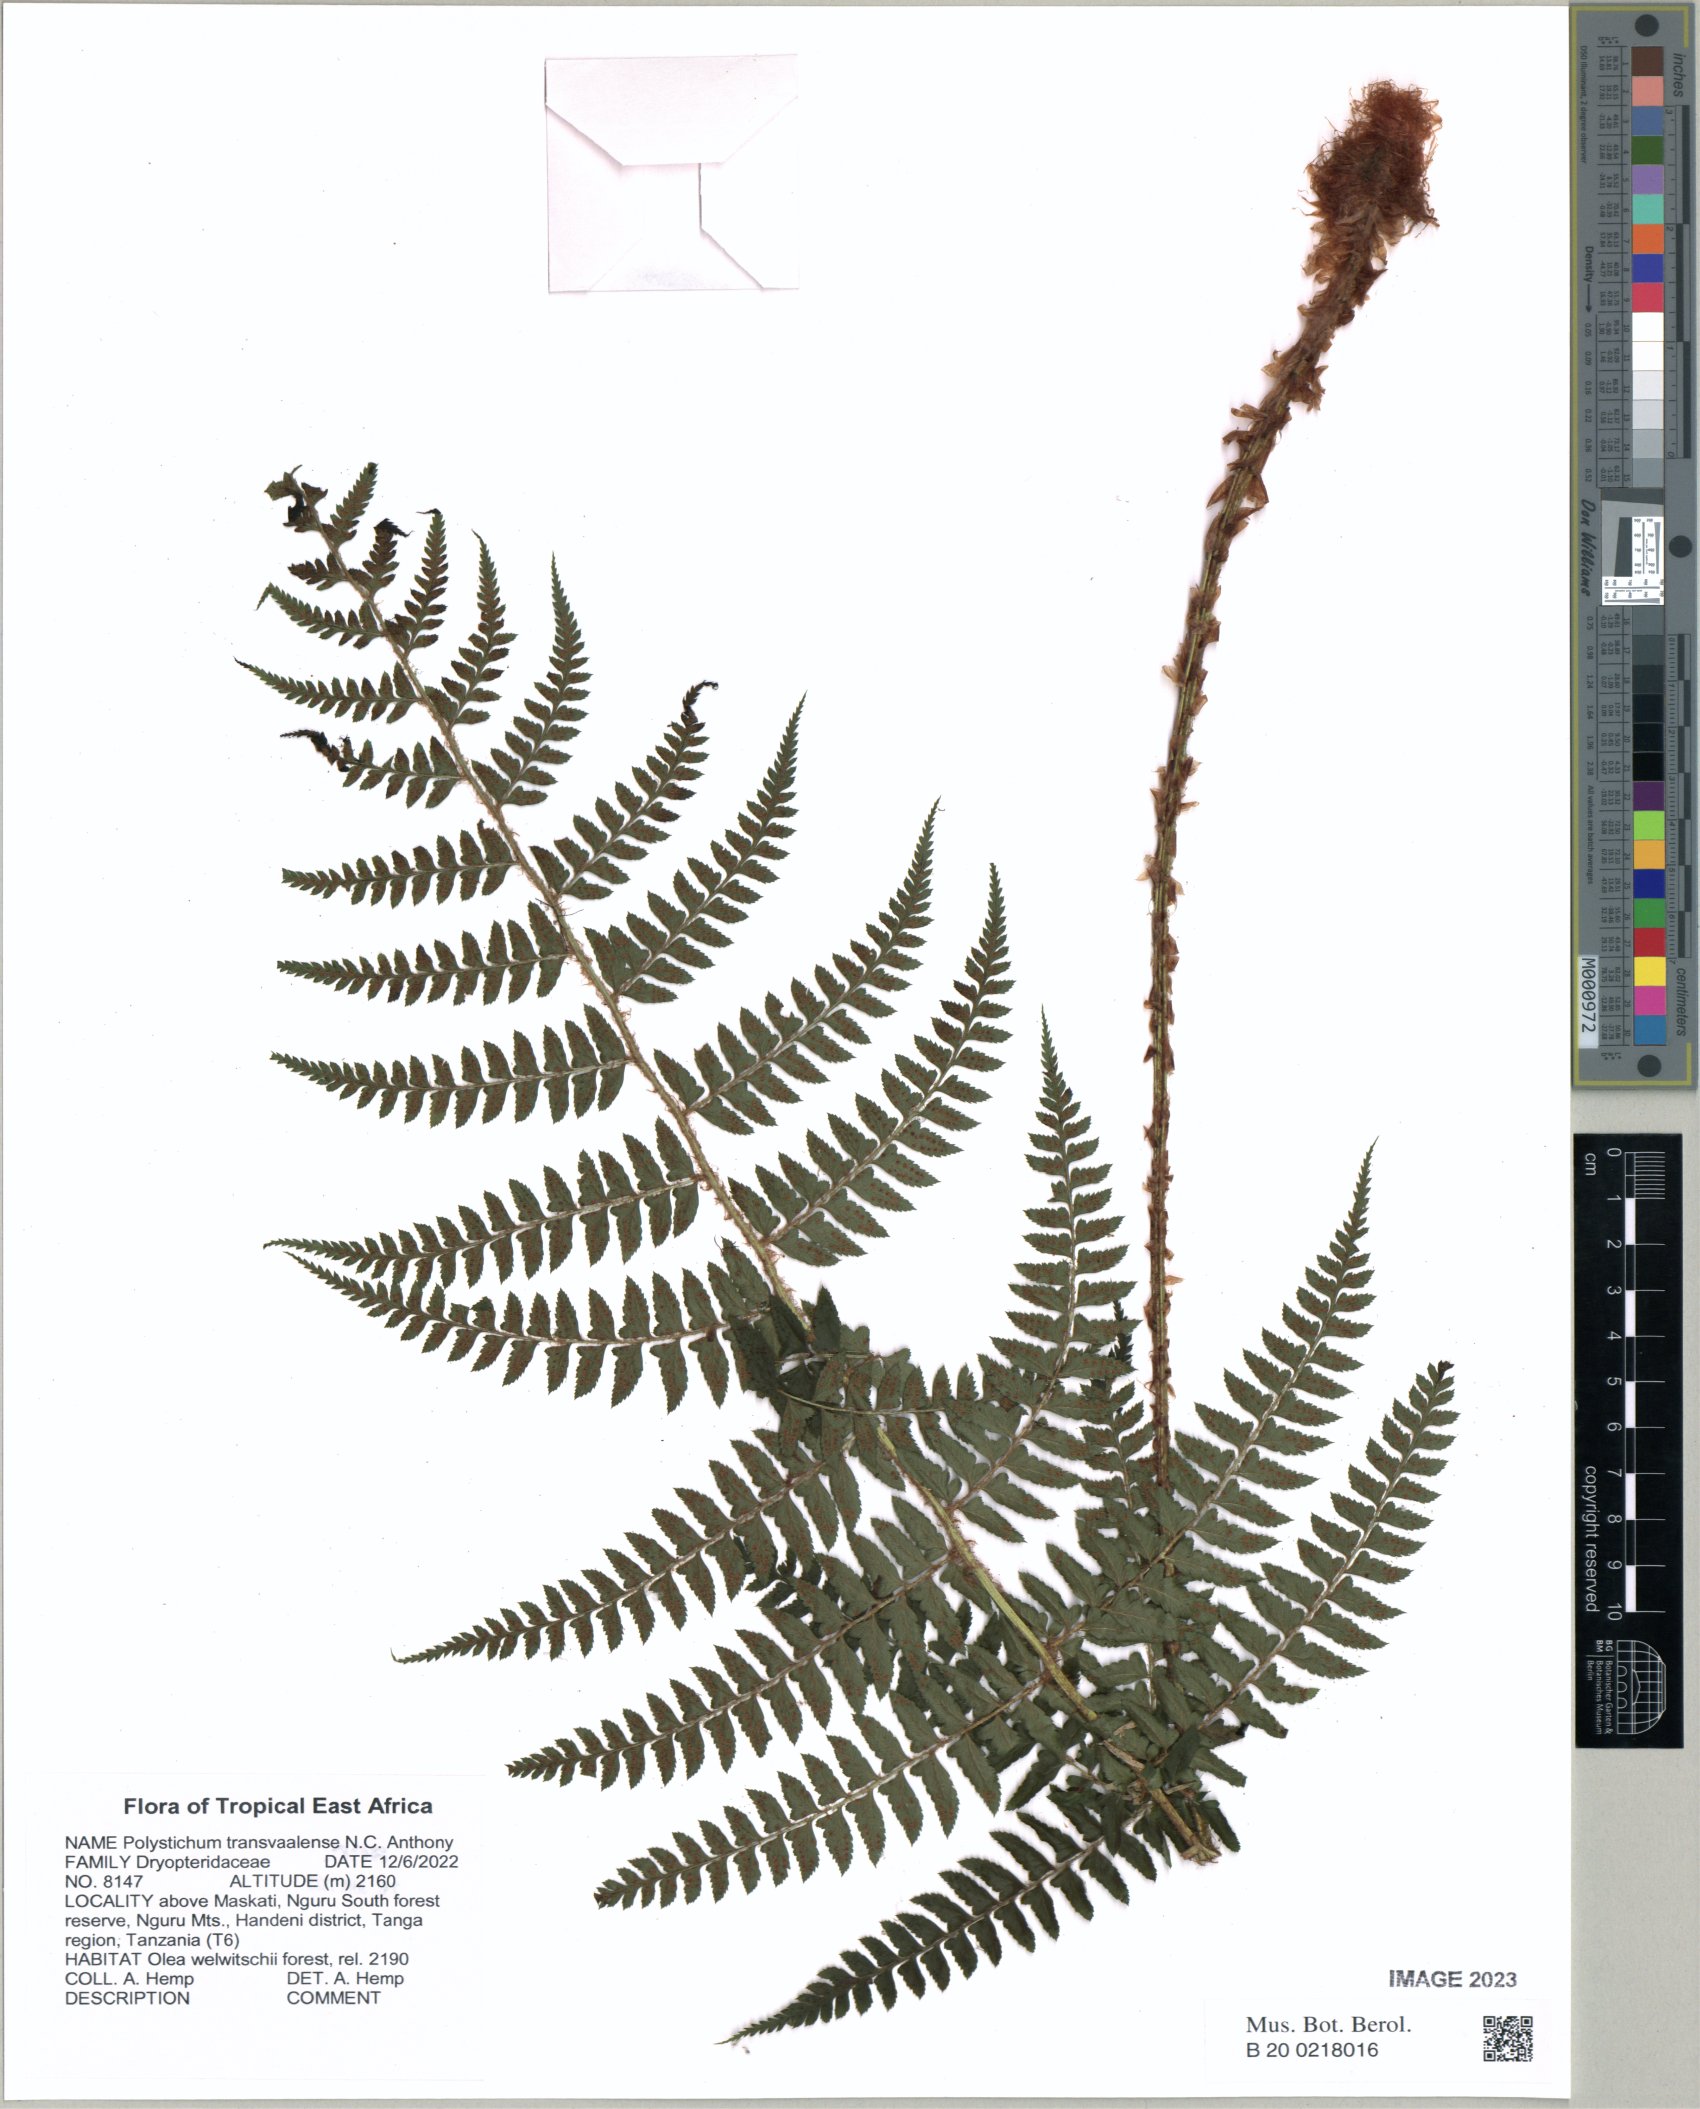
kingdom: Plantae
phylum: Tracheophyta
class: Polypodiopsida
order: Polypodiales
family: Dryopteridaceae
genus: Polystichum
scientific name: Polystichum transvaalense
